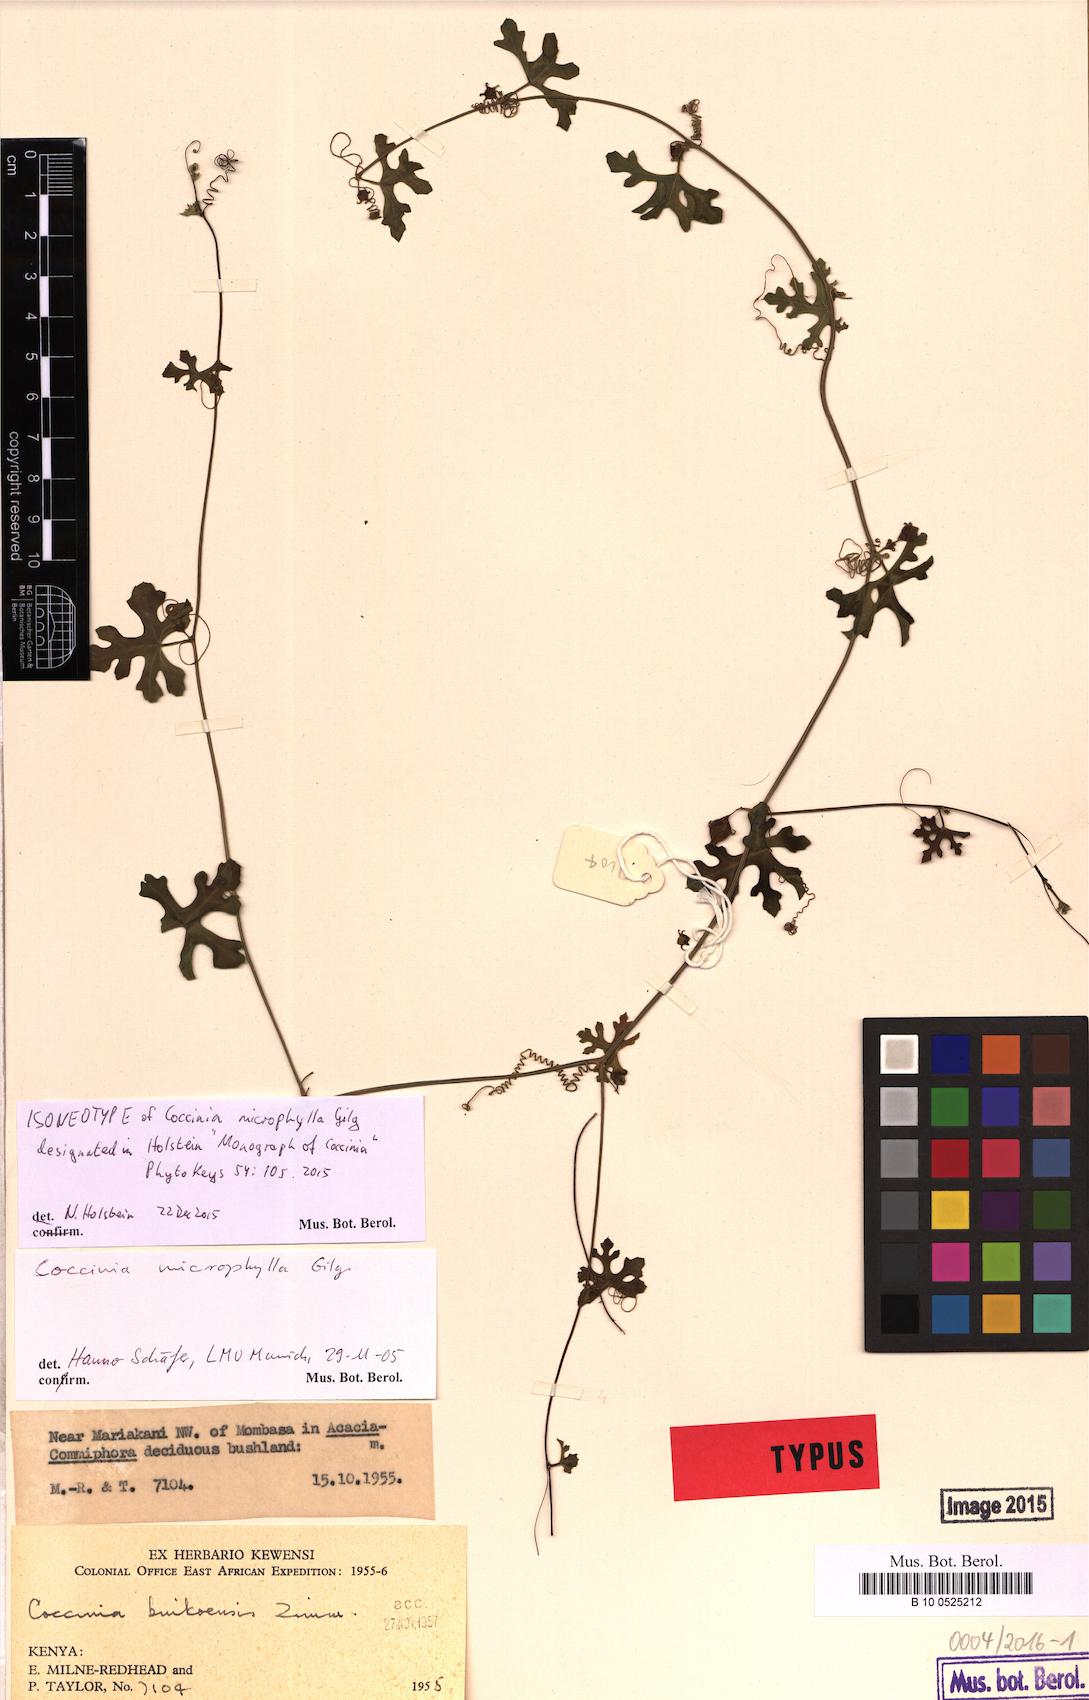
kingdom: Plantae
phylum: Tracheophyta
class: Magnoliopsida
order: Cucurbitales
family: Cucurbitaceae
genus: Coccinia
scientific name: Coccinia microphylla
